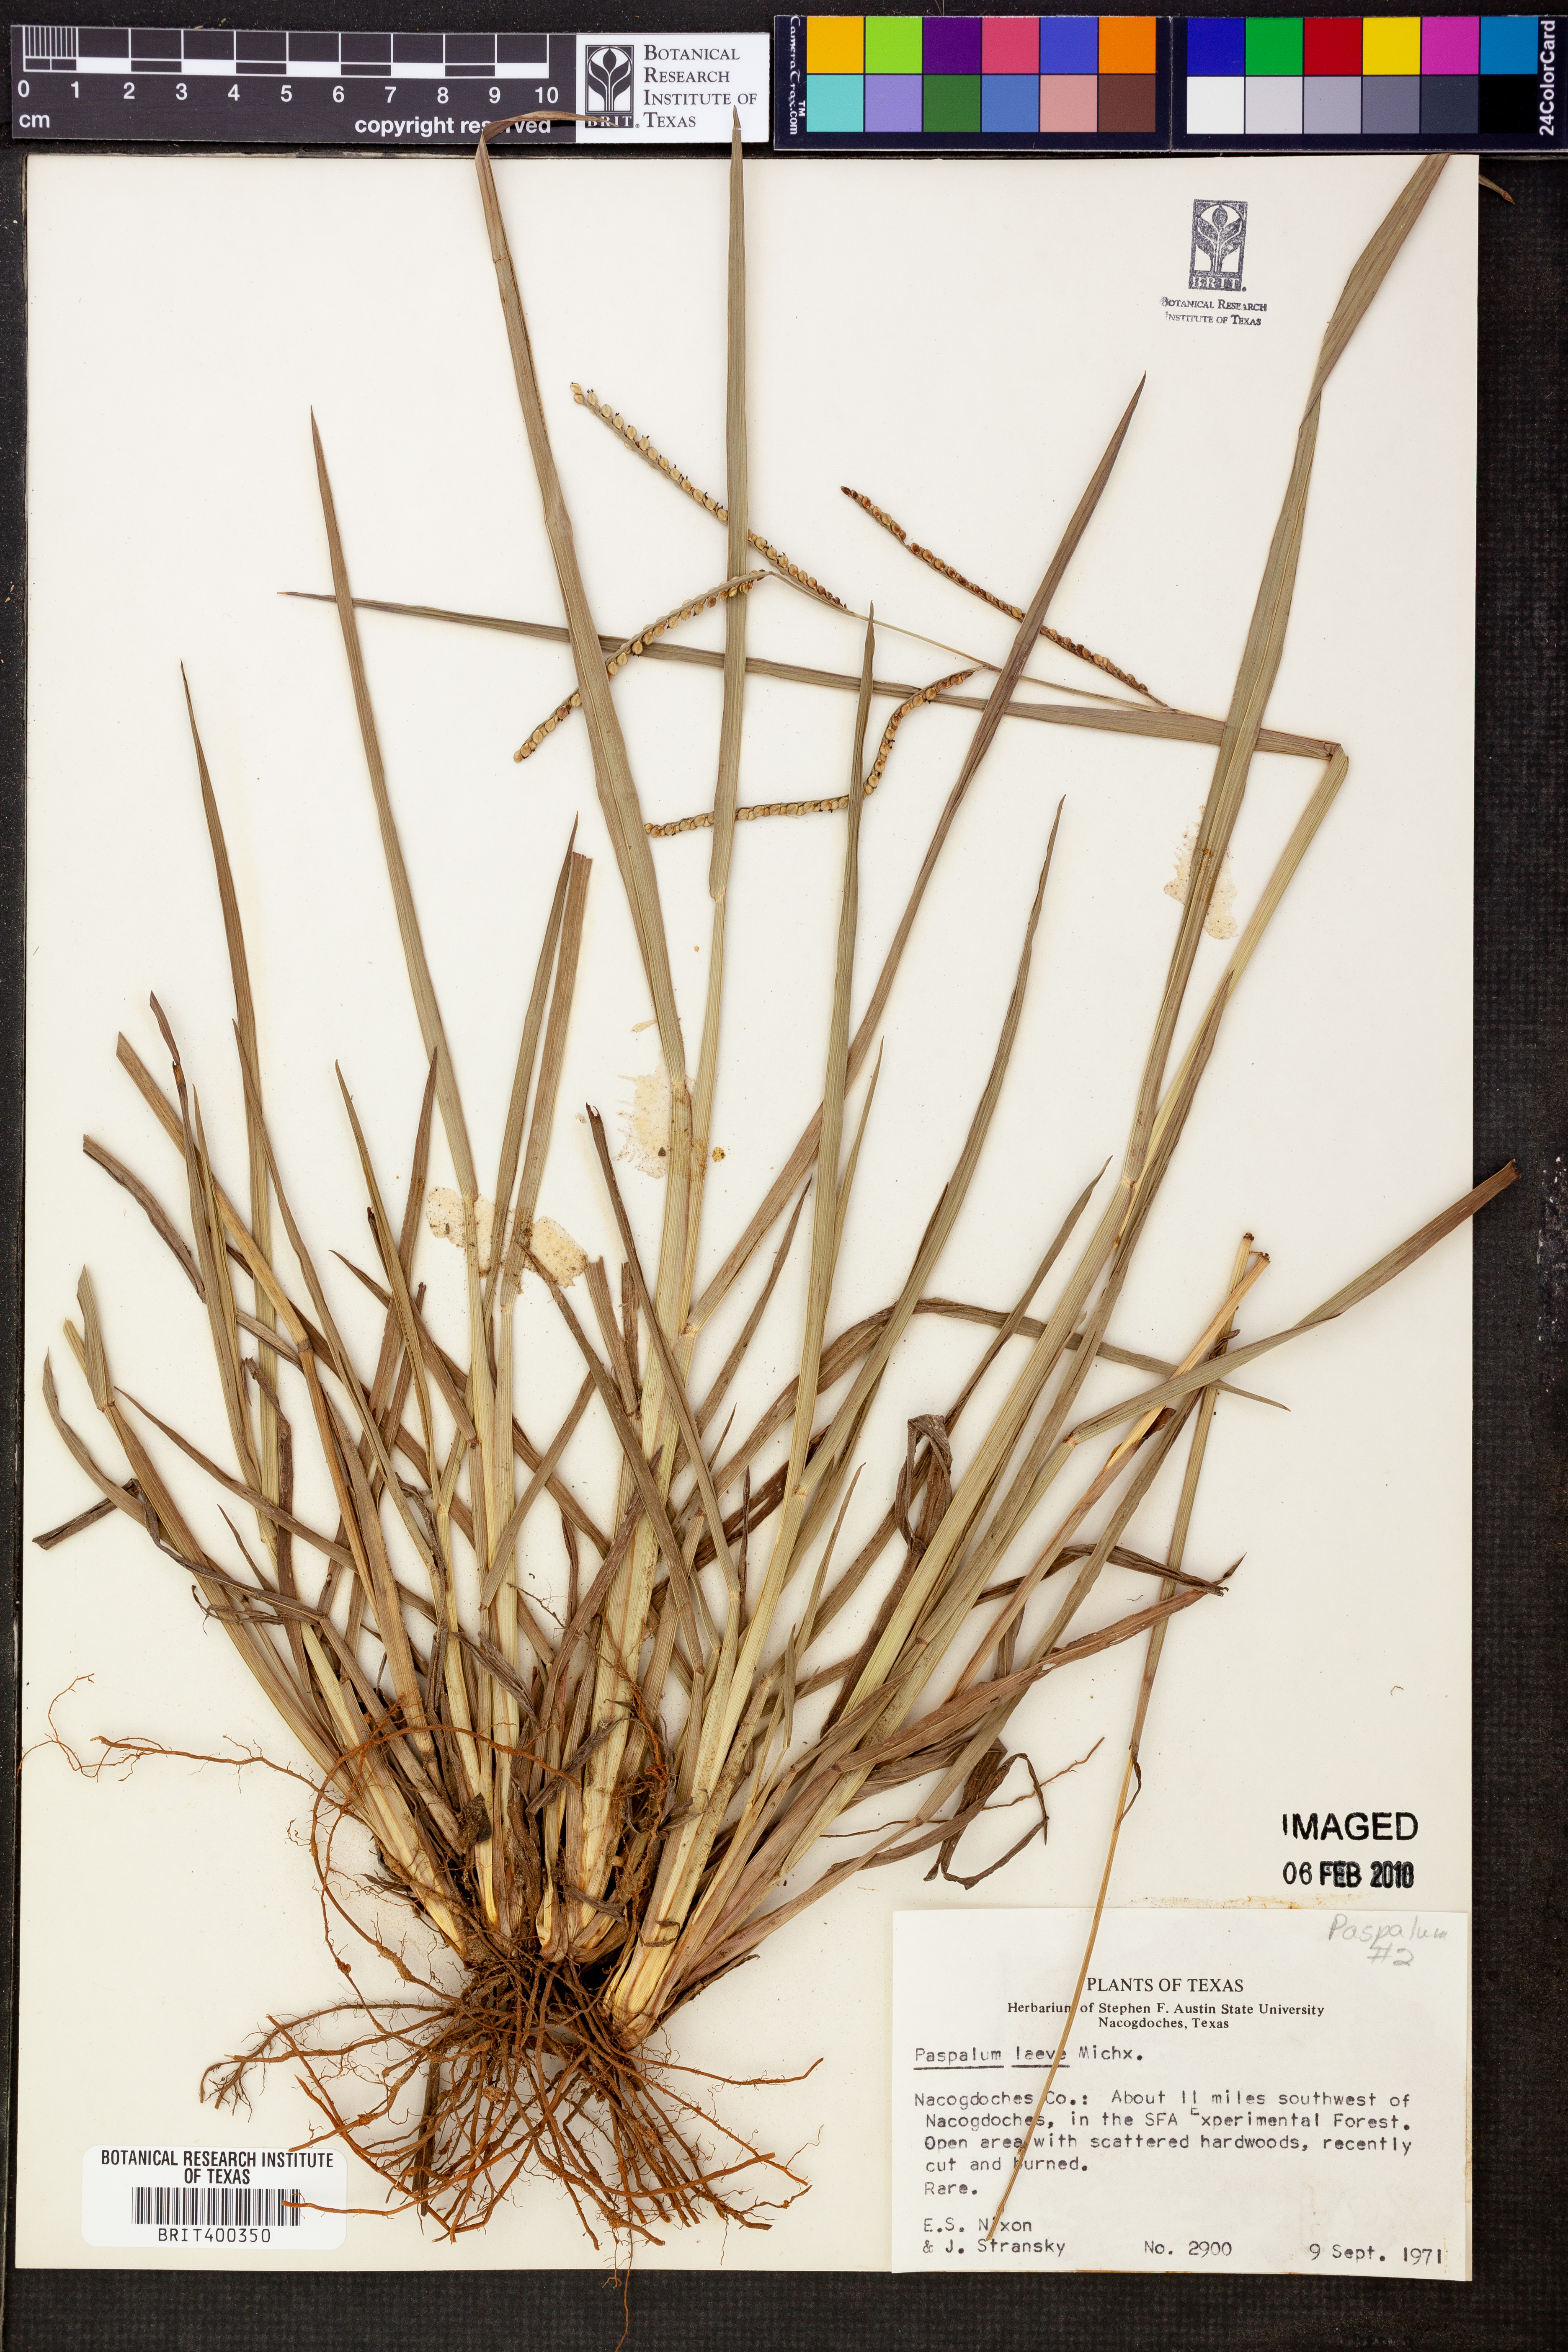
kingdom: Plantae
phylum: Tracheophyta
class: Liliopsida
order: Poales
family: Poaceae
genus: Paspalum
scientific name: Paspalum laeve
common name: Field paspalum
